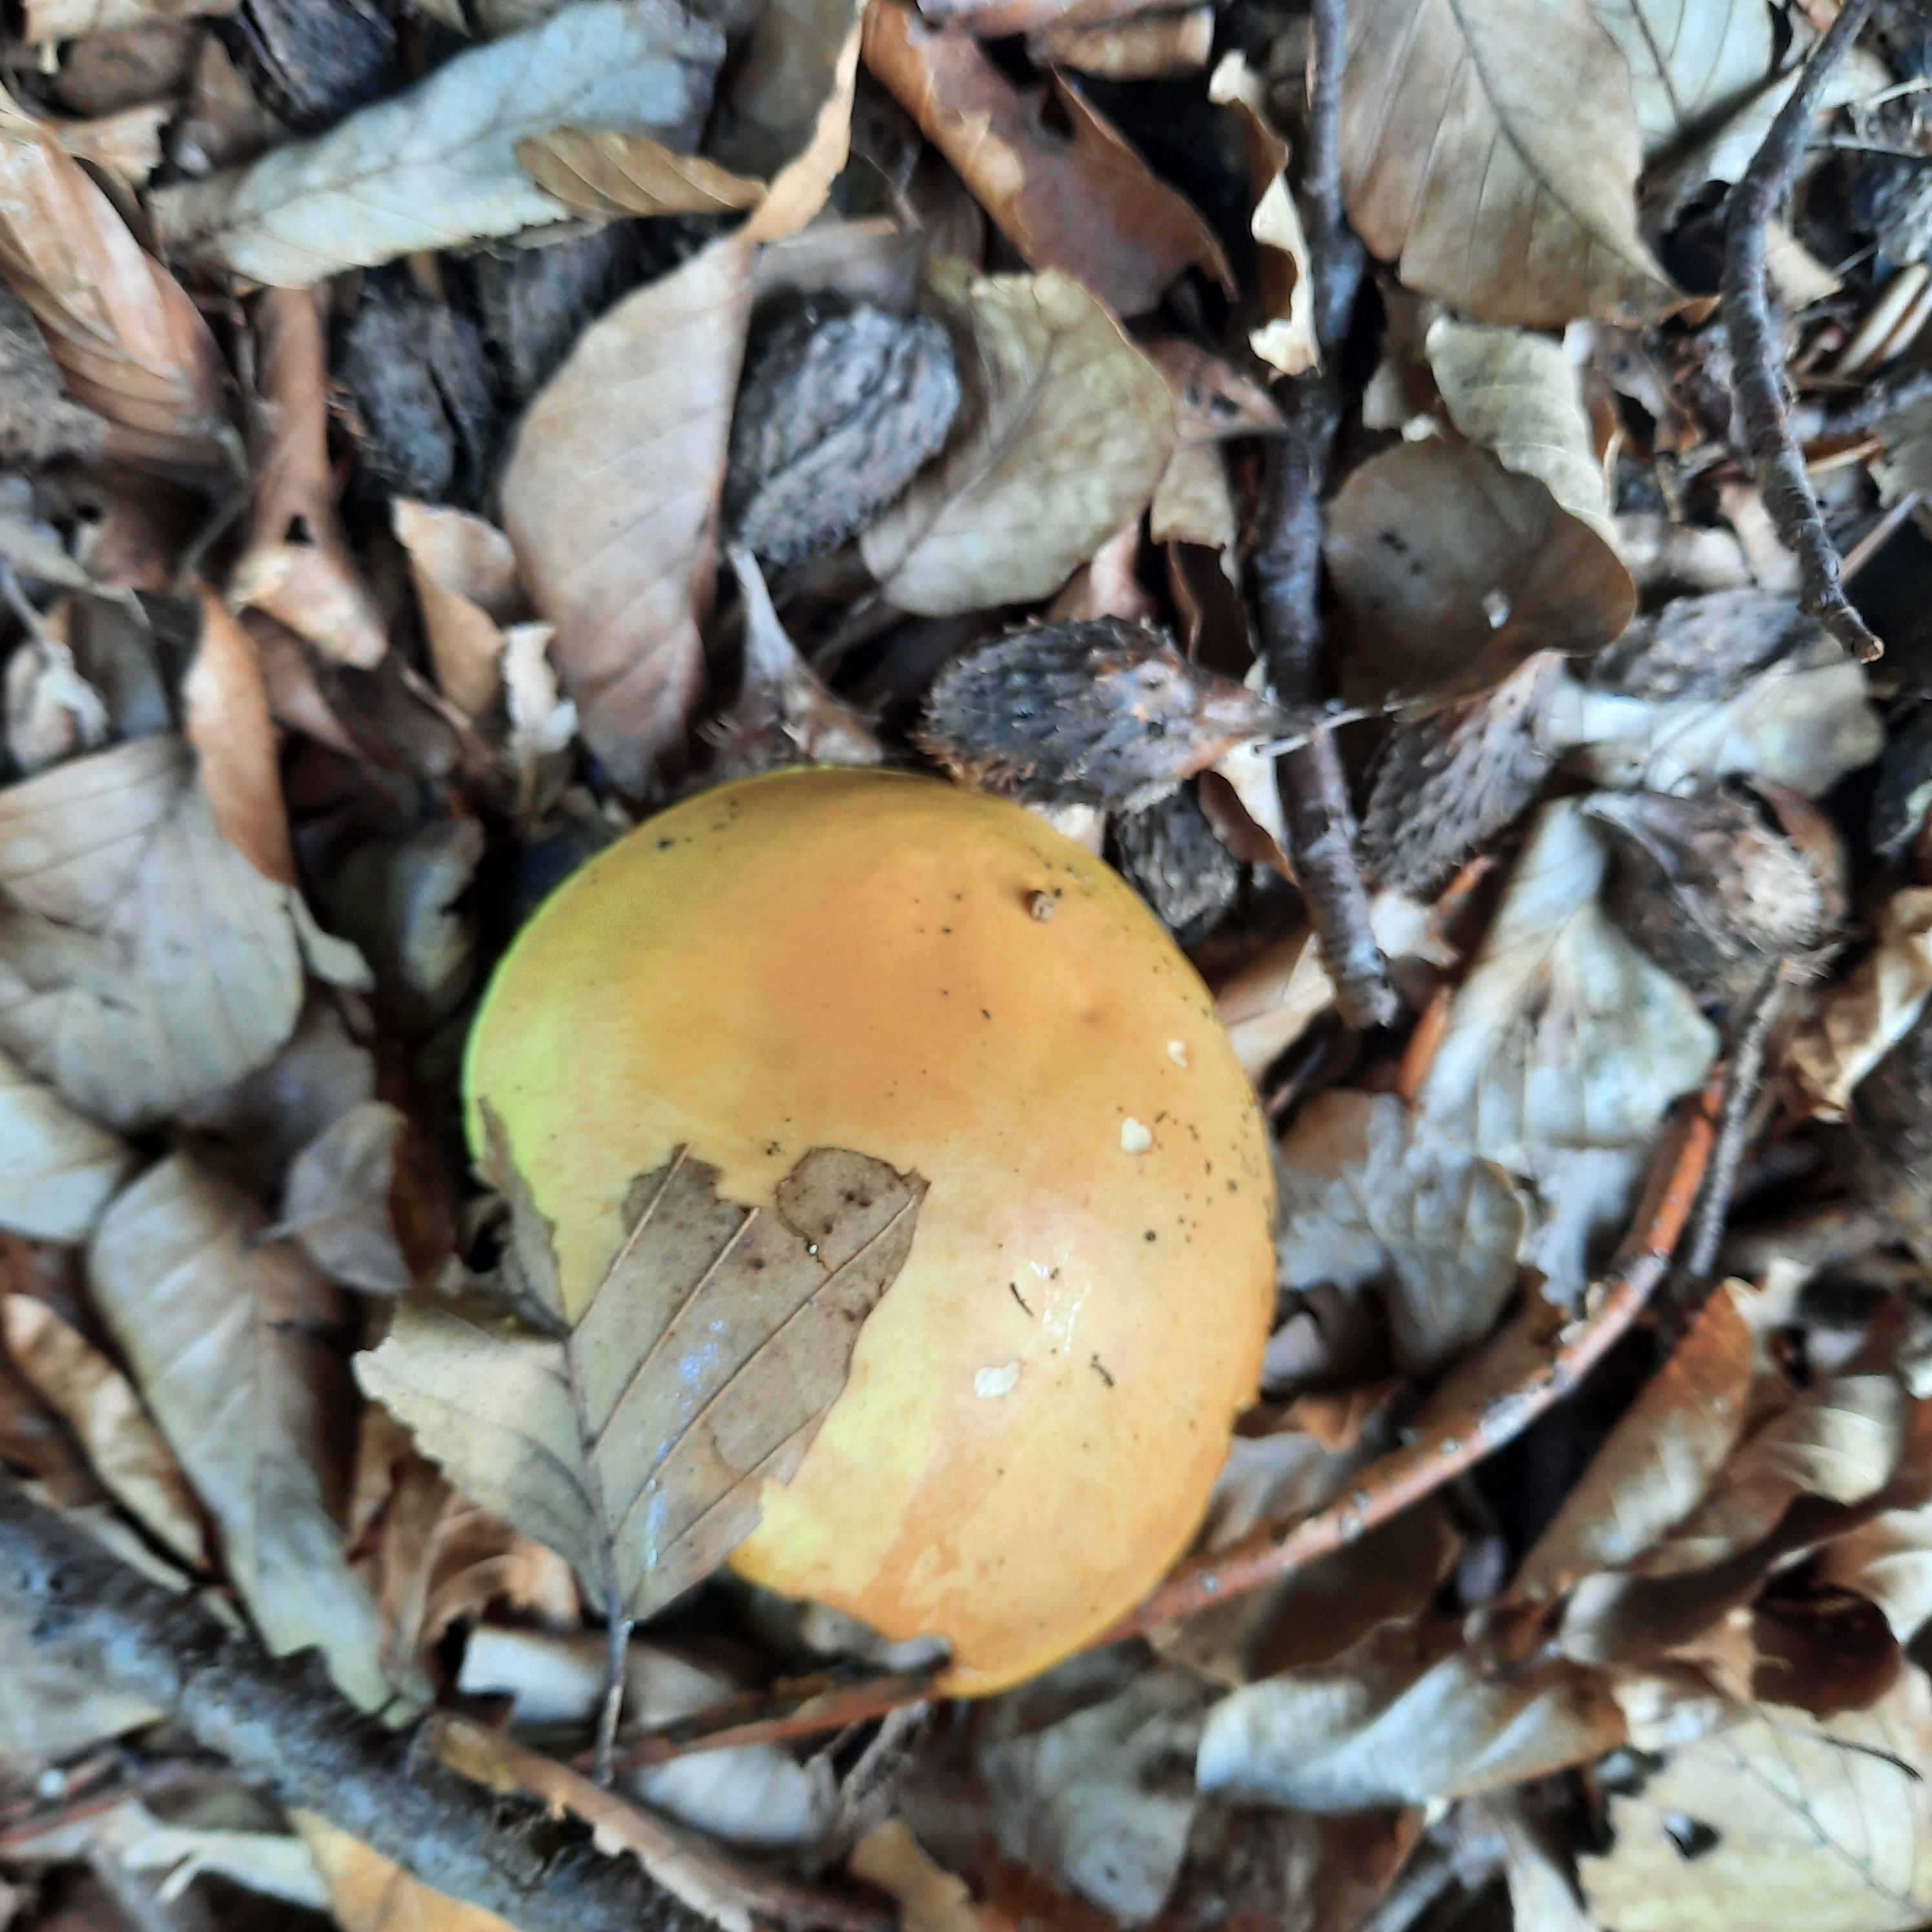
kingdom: Fungi
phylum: Basidiomycota
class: Agaricomycetes
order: Boletales
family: Suillaceae
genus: Suillus
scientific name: Suillus grevillei
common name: lærke-slimrørhat
